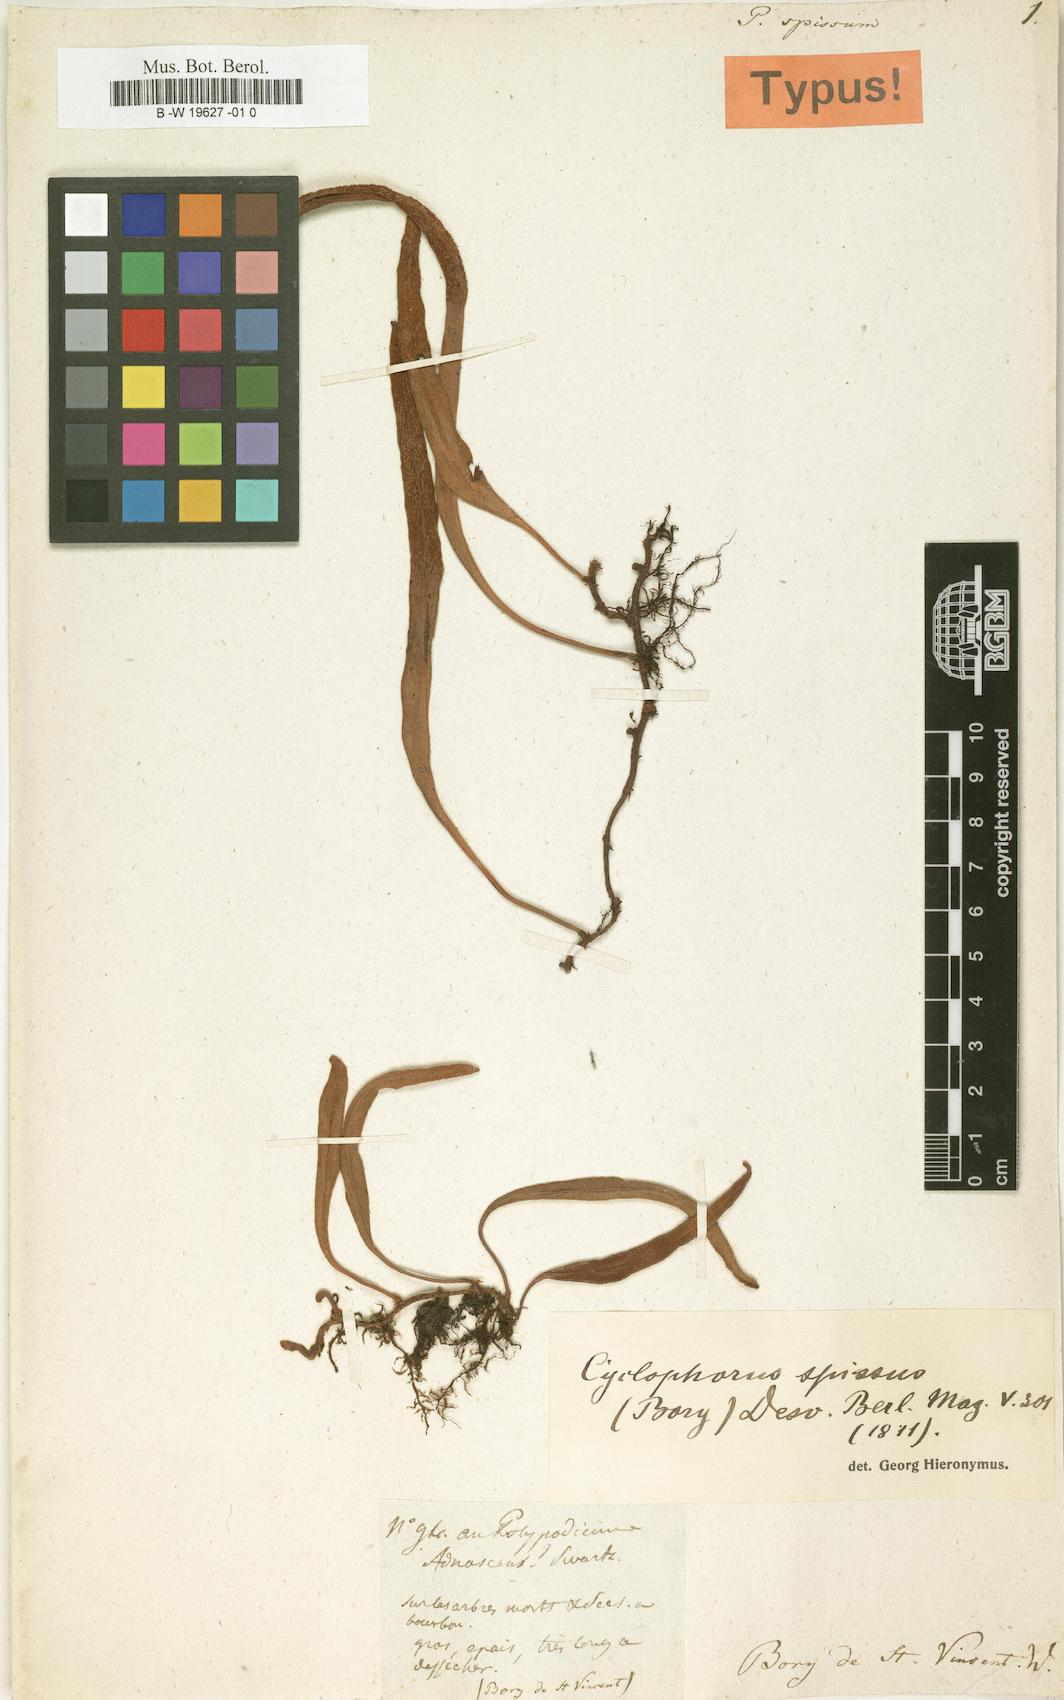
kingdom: Plantae
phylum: Tracheophyta
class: Polypodiopsida
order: Polypodiales
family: Polypodiaceae
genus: Polypodium
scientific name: Polypodium spissum
